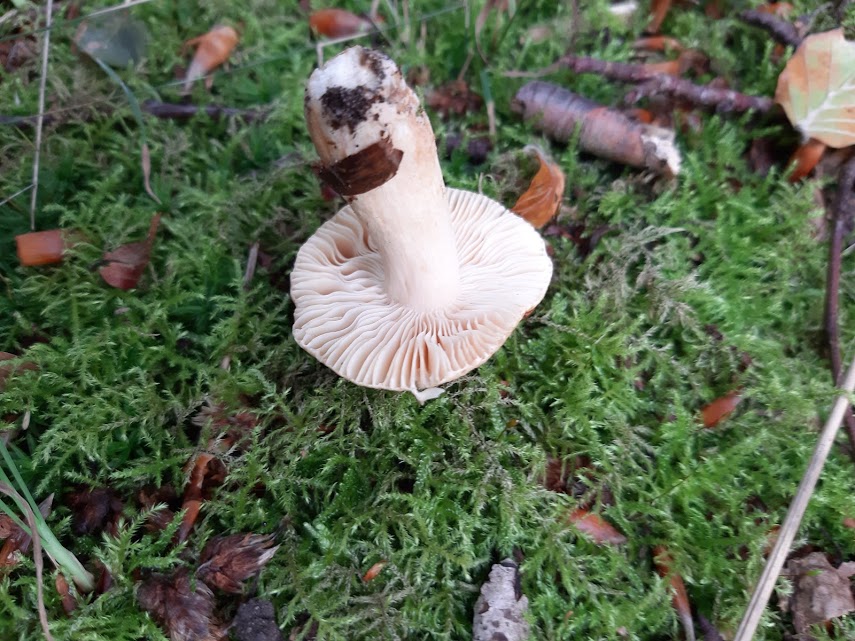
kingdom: Fungi
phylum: Basidiomycota
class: Agaricomycetes
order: Russulales
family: Russulaceae
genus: Russula
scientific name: Russula fellea
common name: galde-skørhat
